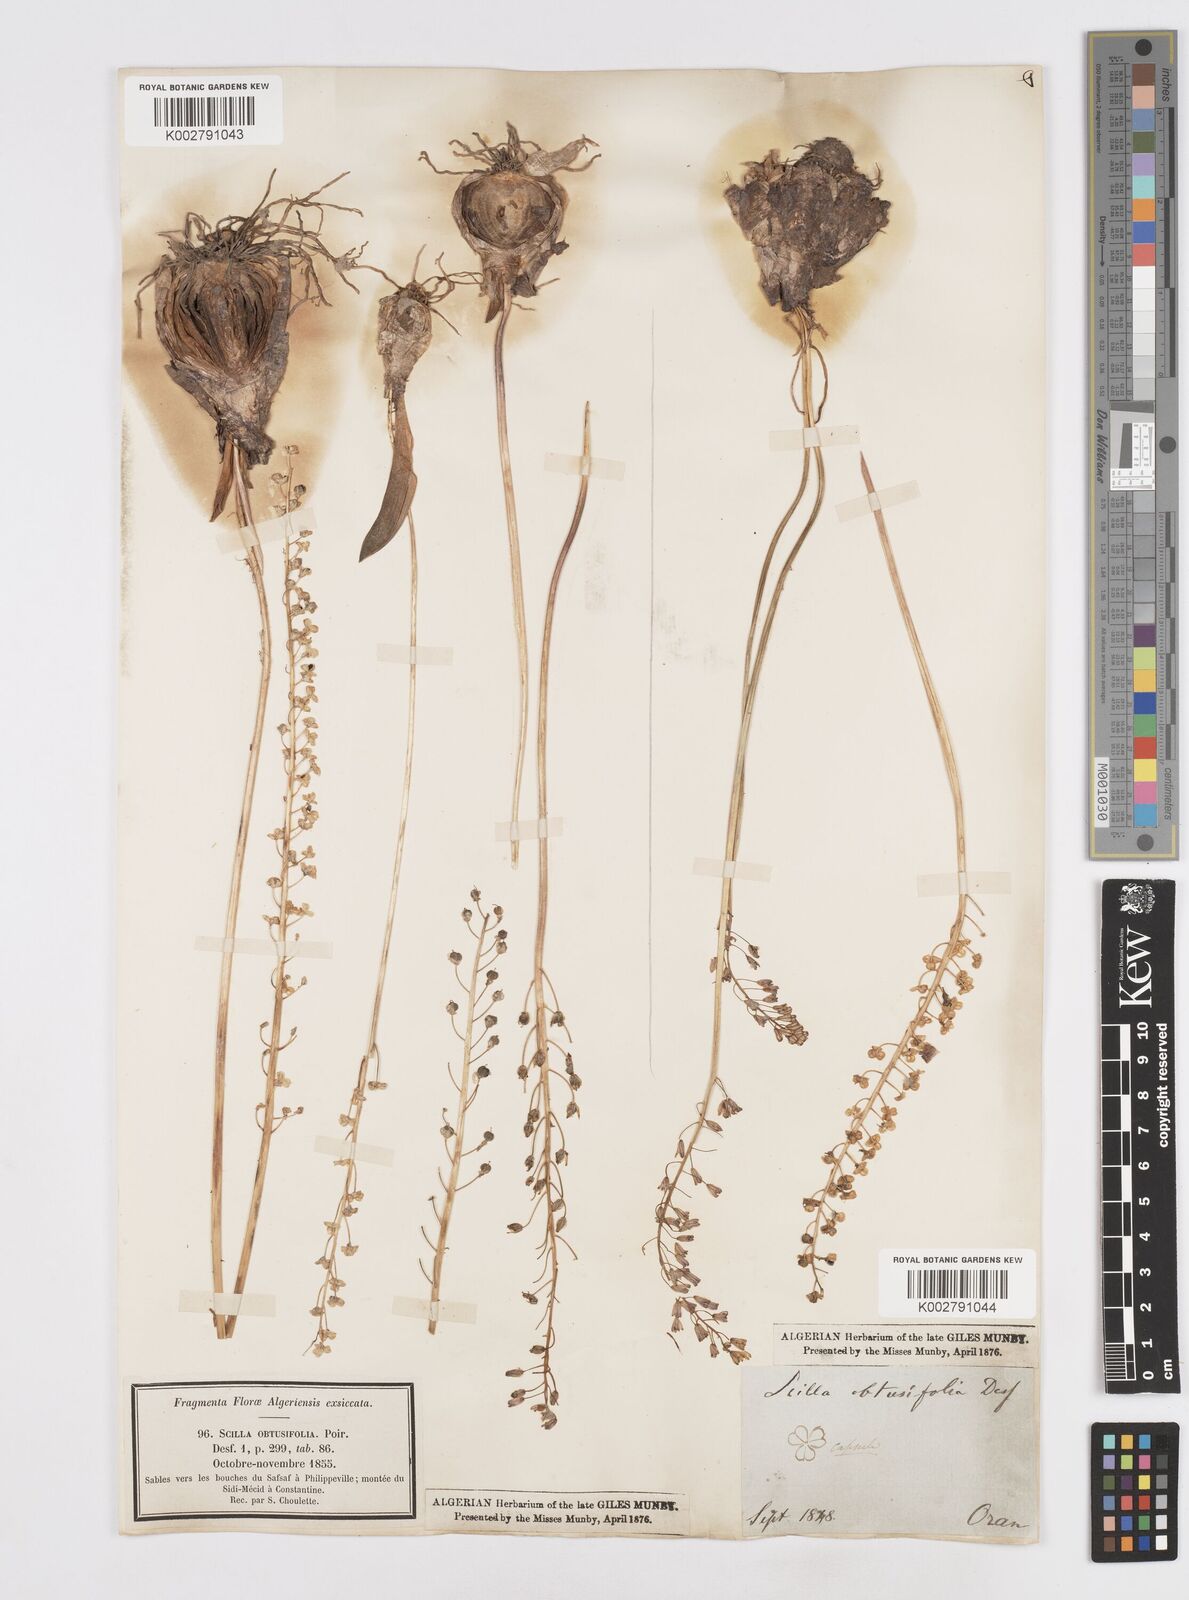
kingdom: Plantae
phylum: Tracheophyta
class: Liliopsida
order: Asparagales
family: Asparagaceae
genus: Prospero
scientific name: Prospero obtusifolium
